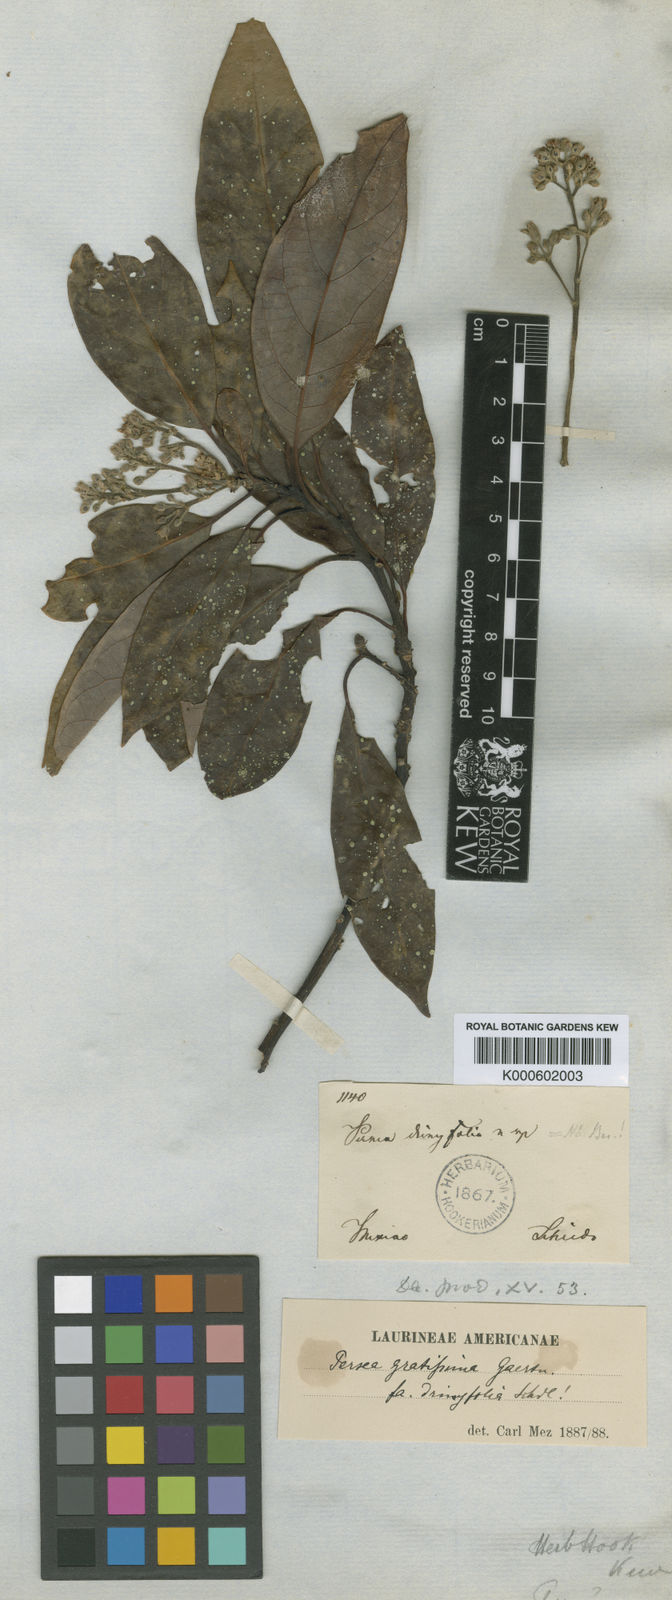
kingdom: Plantae
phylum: Tracheophyta
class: Magnoliopsida
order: Laurales
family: Lauraceae
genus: Persea
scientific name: Persea americana
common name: Avocado
